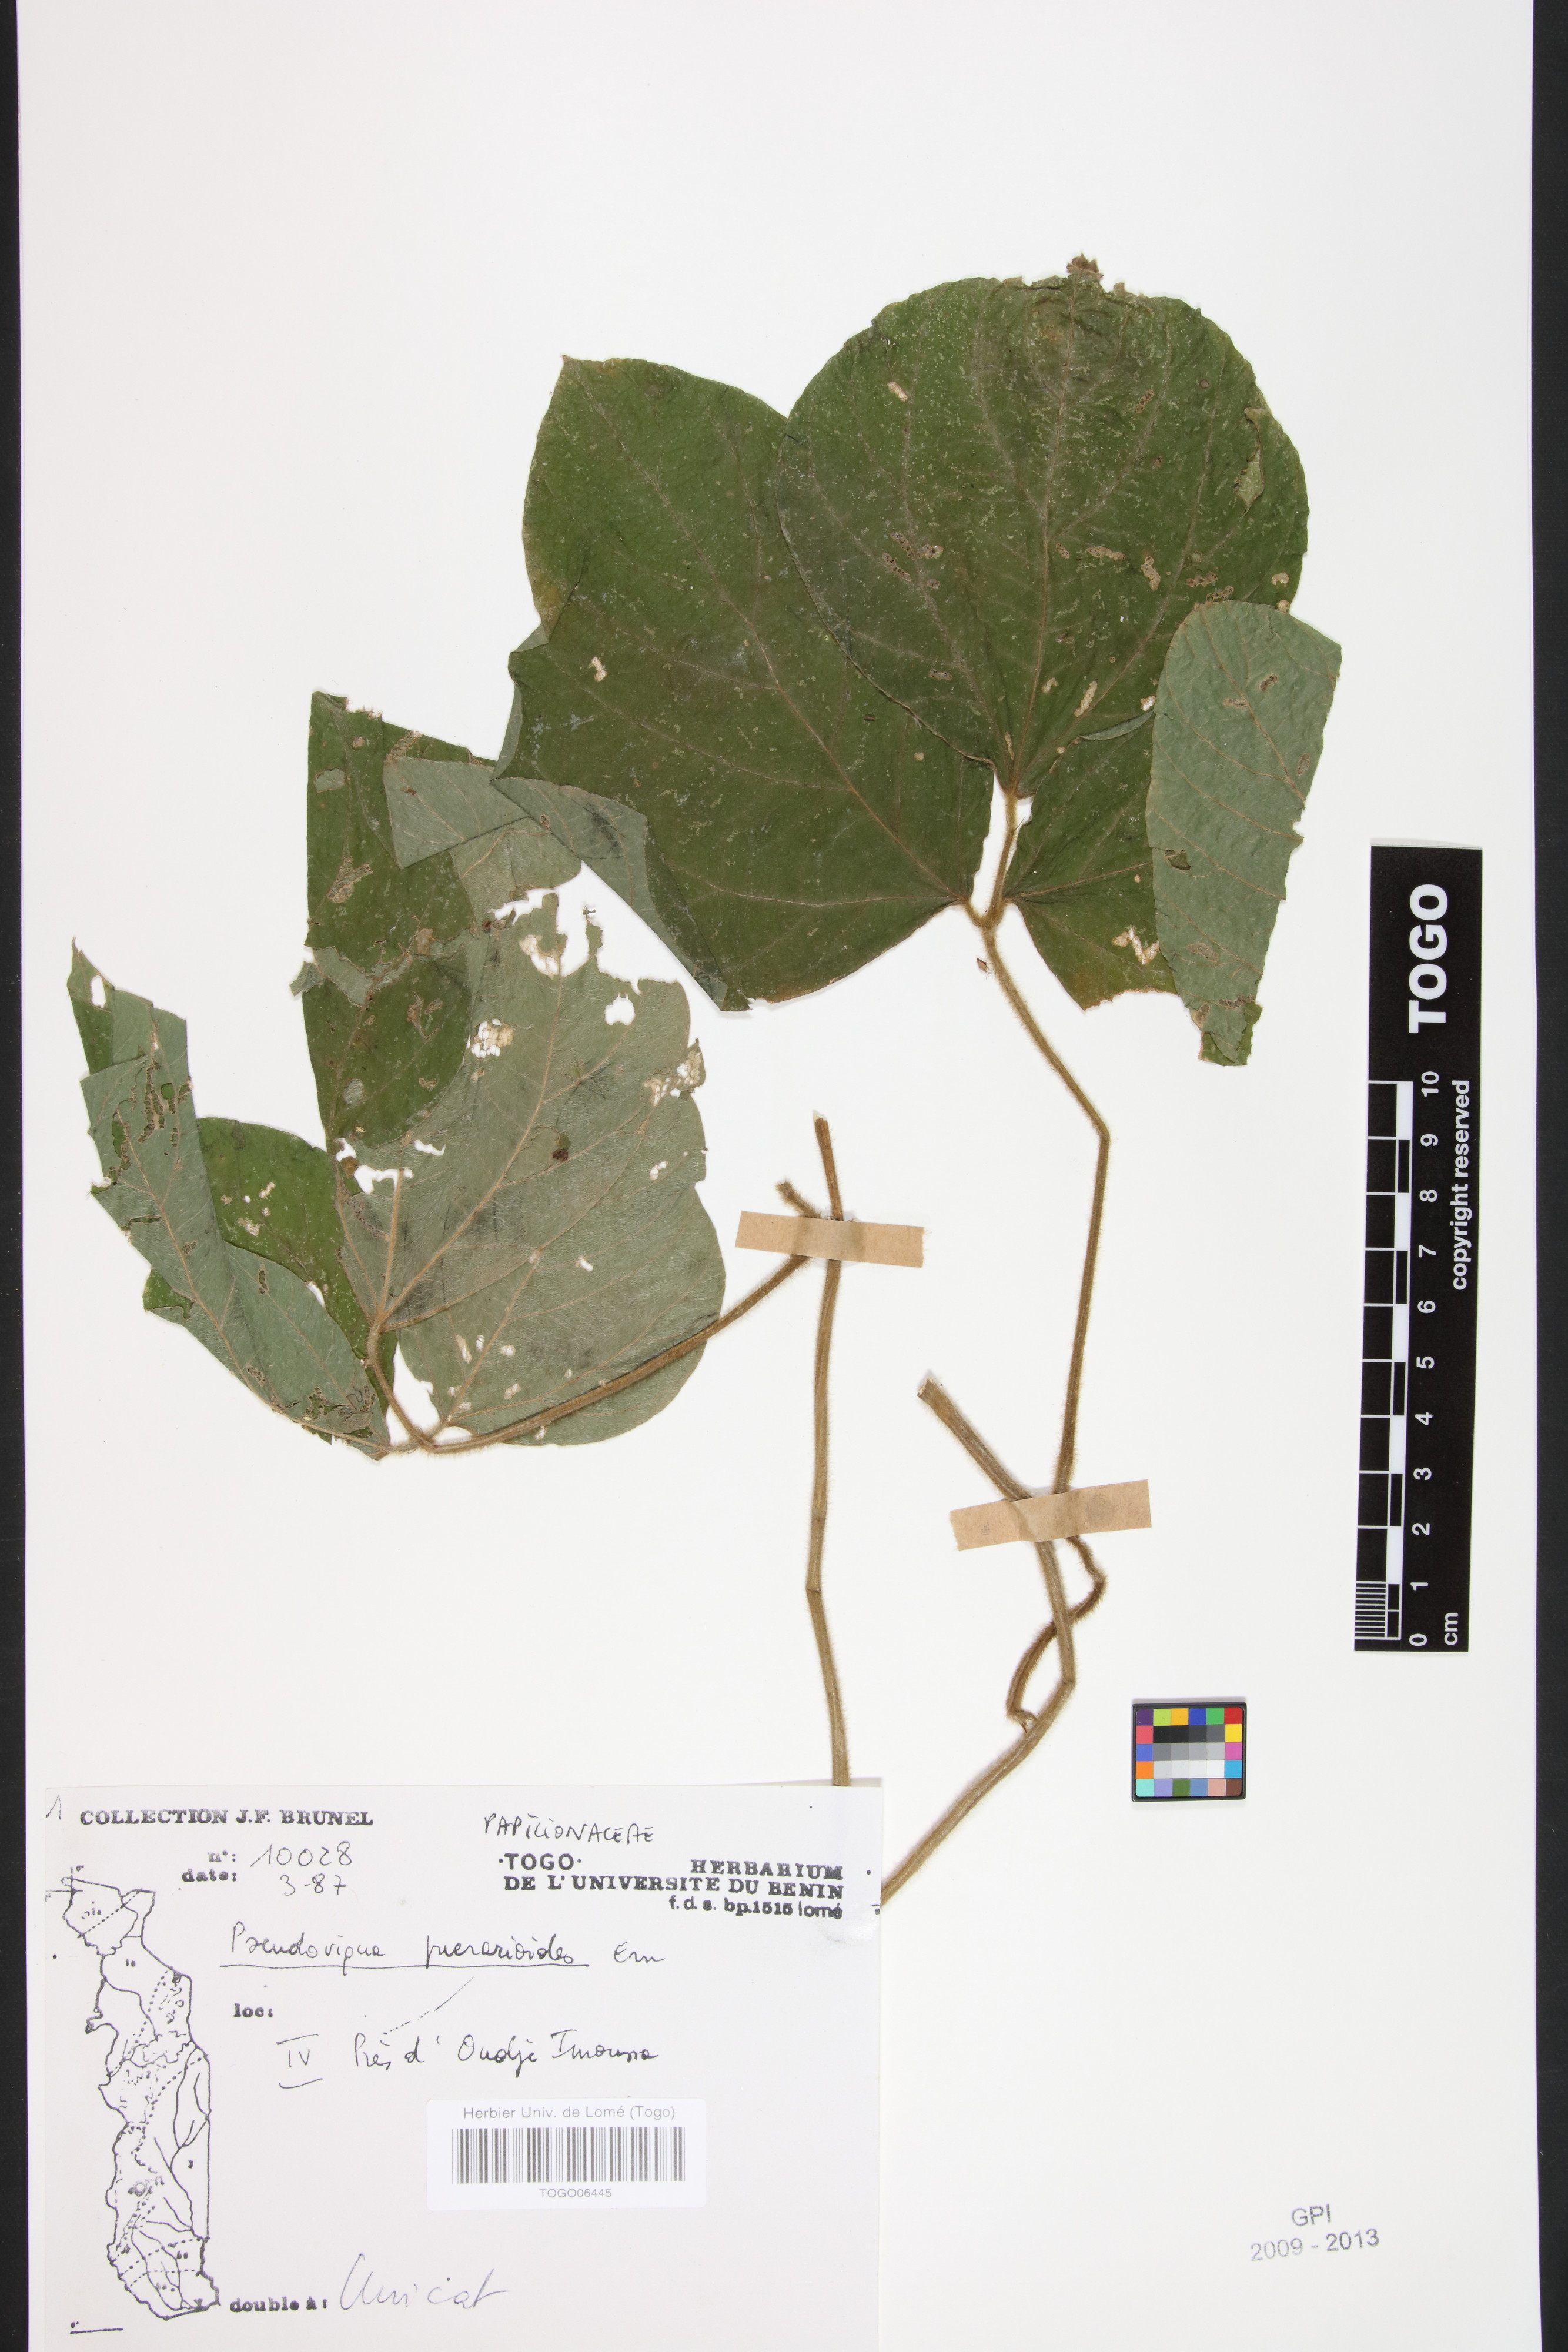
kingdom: Plantae
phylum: Tracheophyta
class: Magnoliopsida
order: Fabales
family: Fabaceae
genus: Pseudovigna
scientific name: Pseudovigna puerarioides
